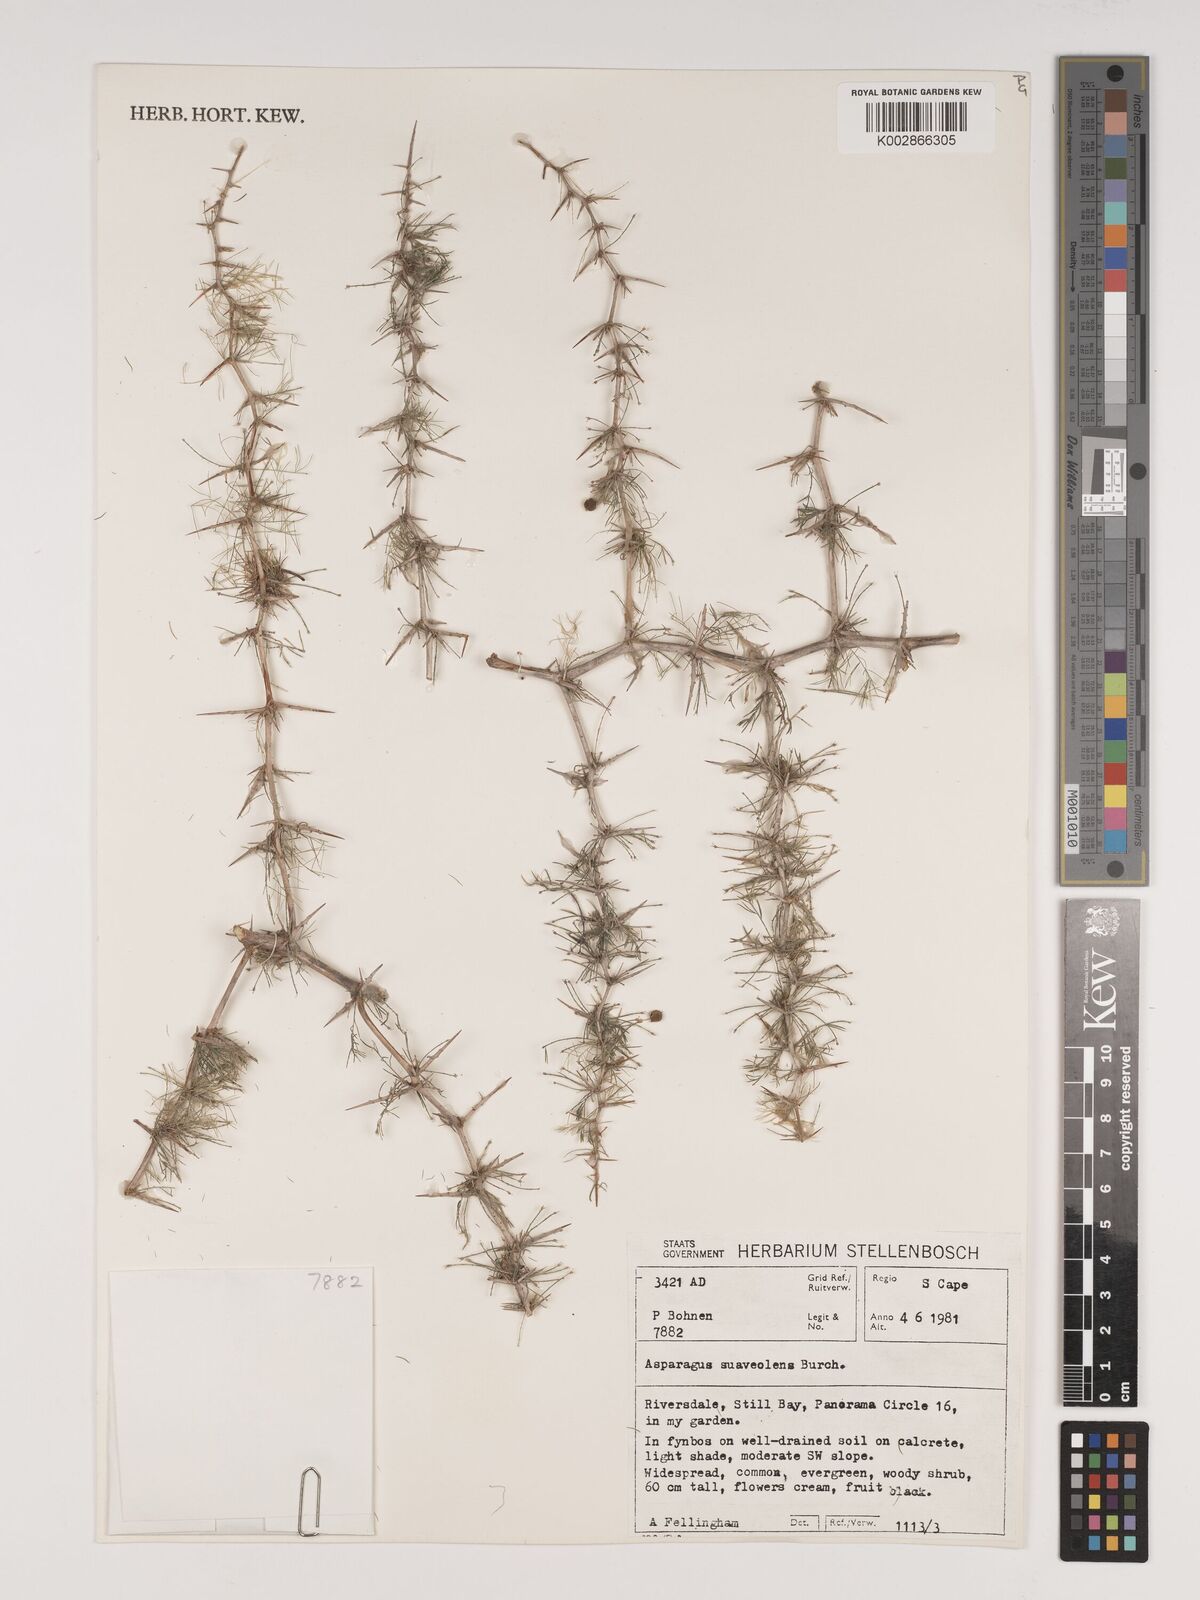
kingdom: Plantae
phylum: Tracheophyta
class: Liliopsida
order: Asparagales
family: Asparagaceae
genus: Asparagus
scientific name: Asparagus suaveolens
